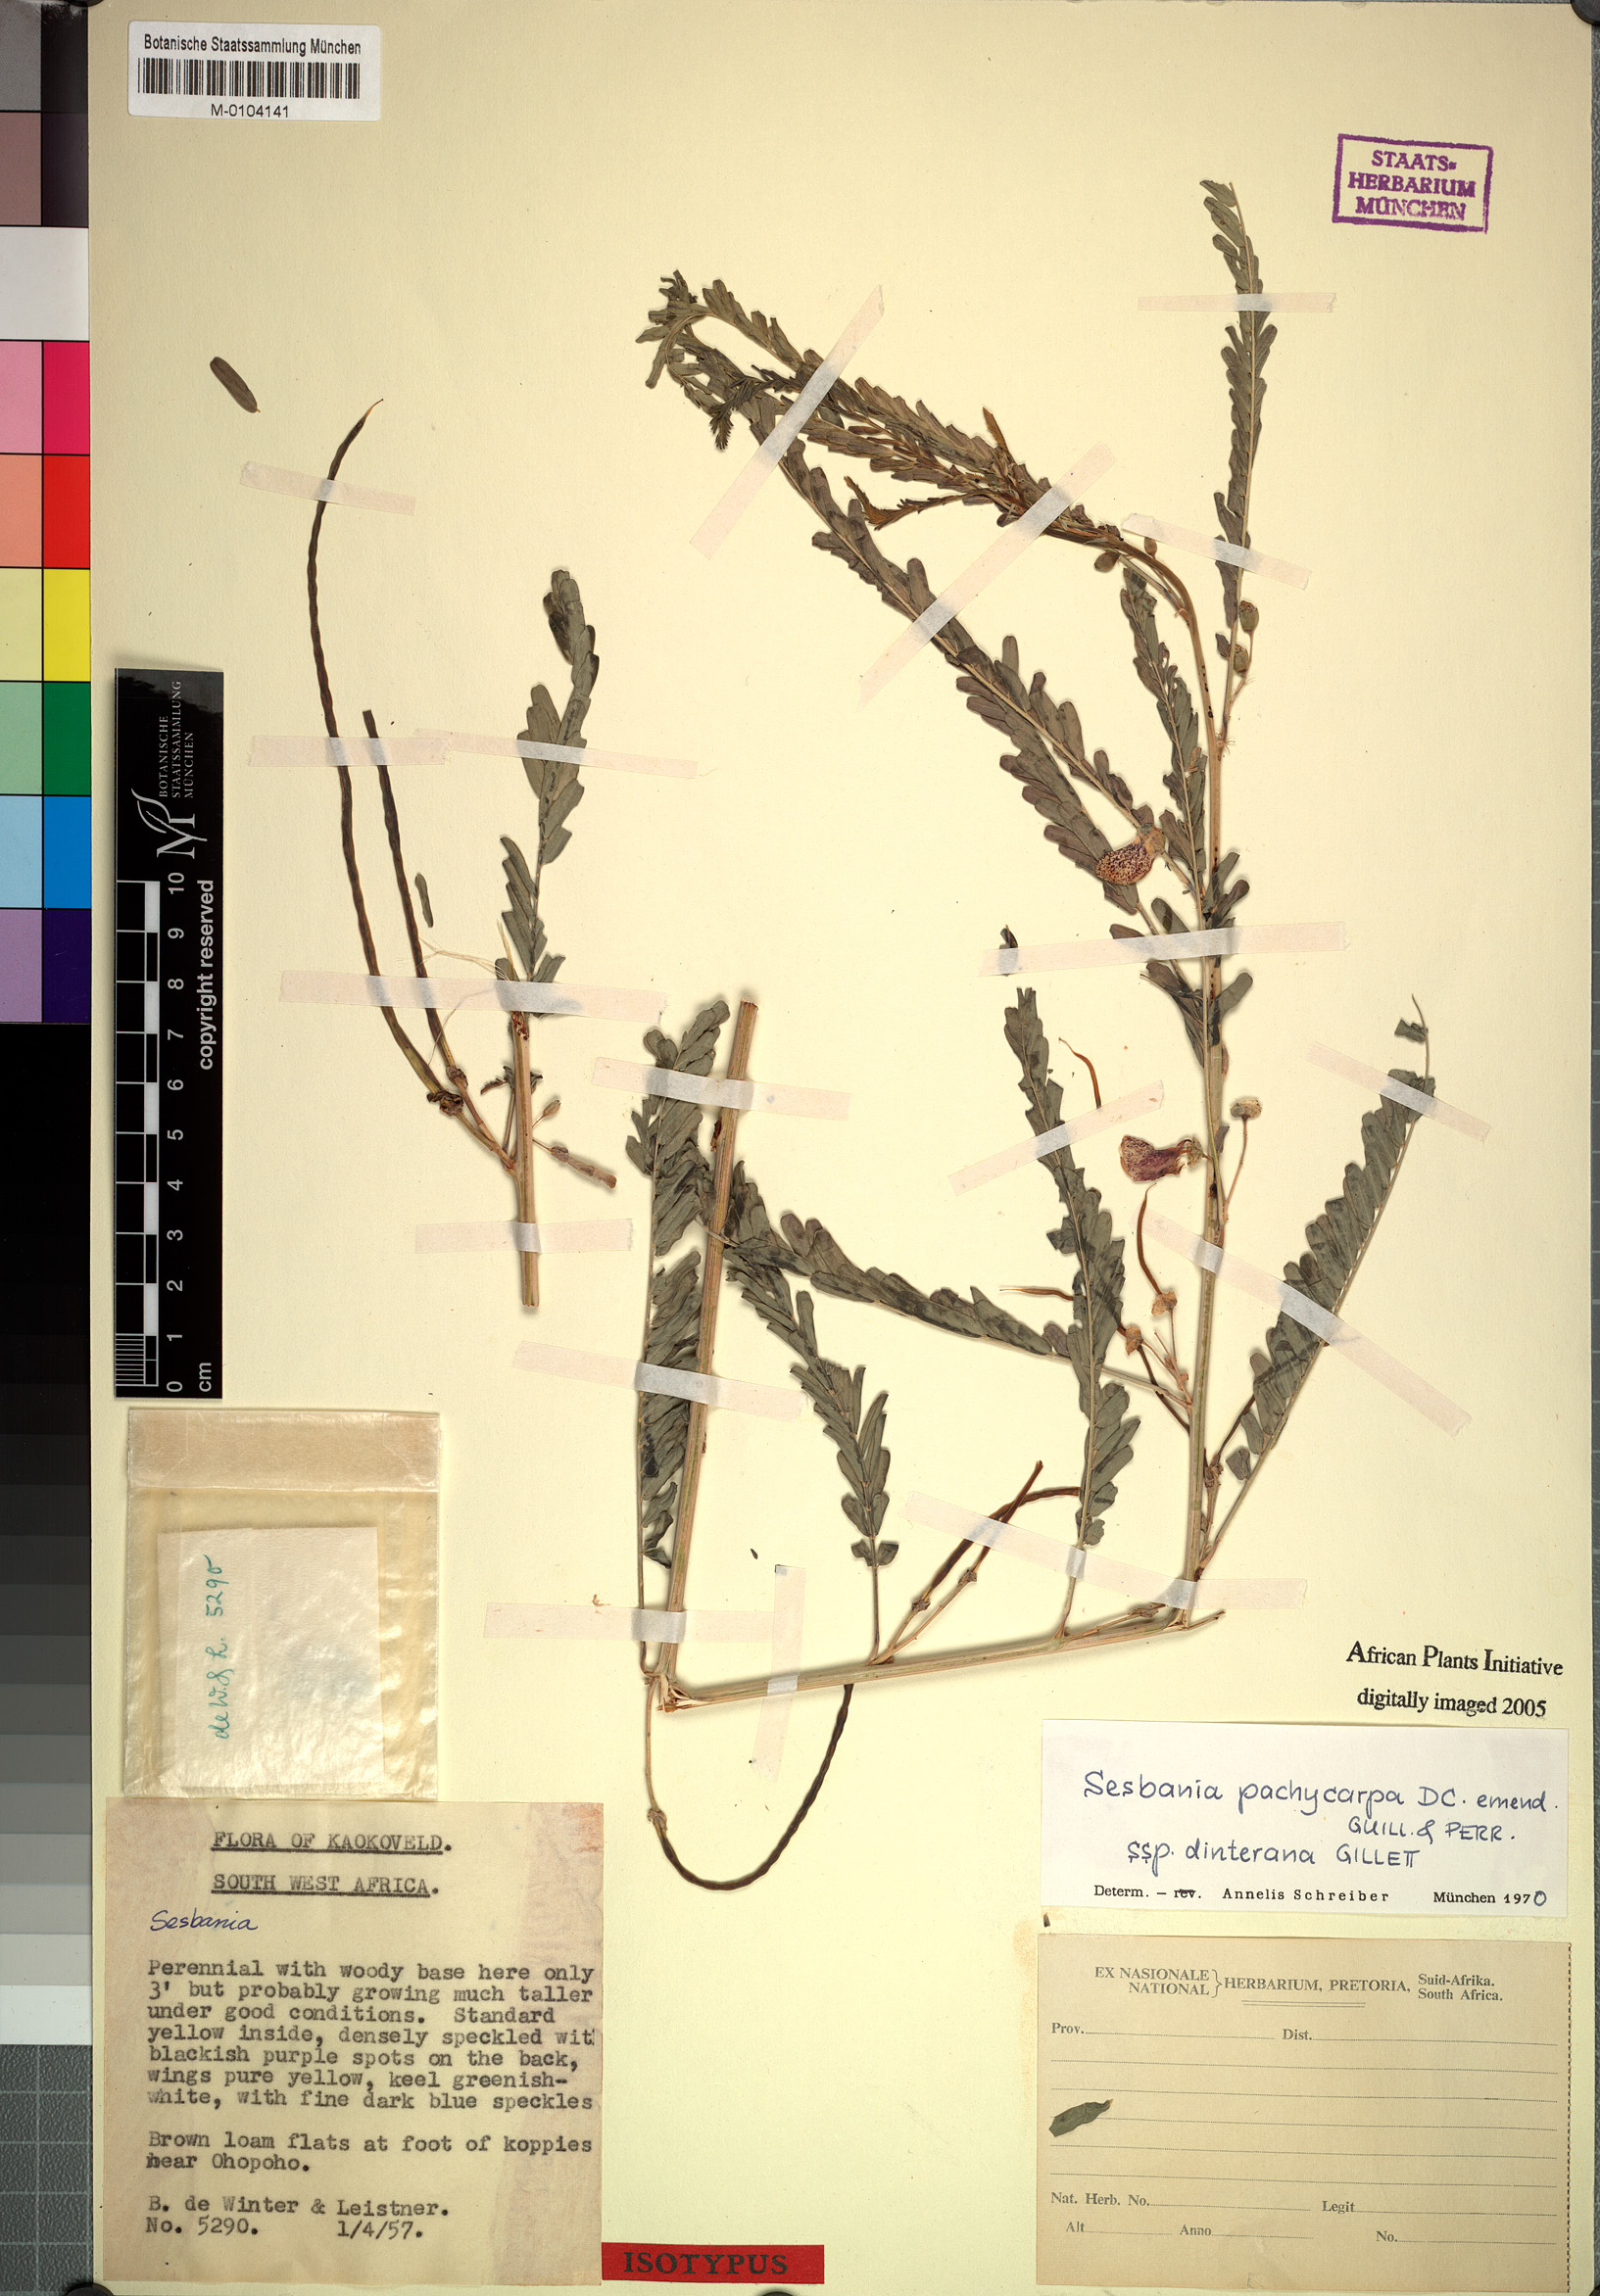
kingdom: Plantae
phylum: Tracheophyta
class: Magnoliopsida
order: Fabales
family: Fabaceae
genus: Sesbania
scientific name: Sesbania pachycarpa
